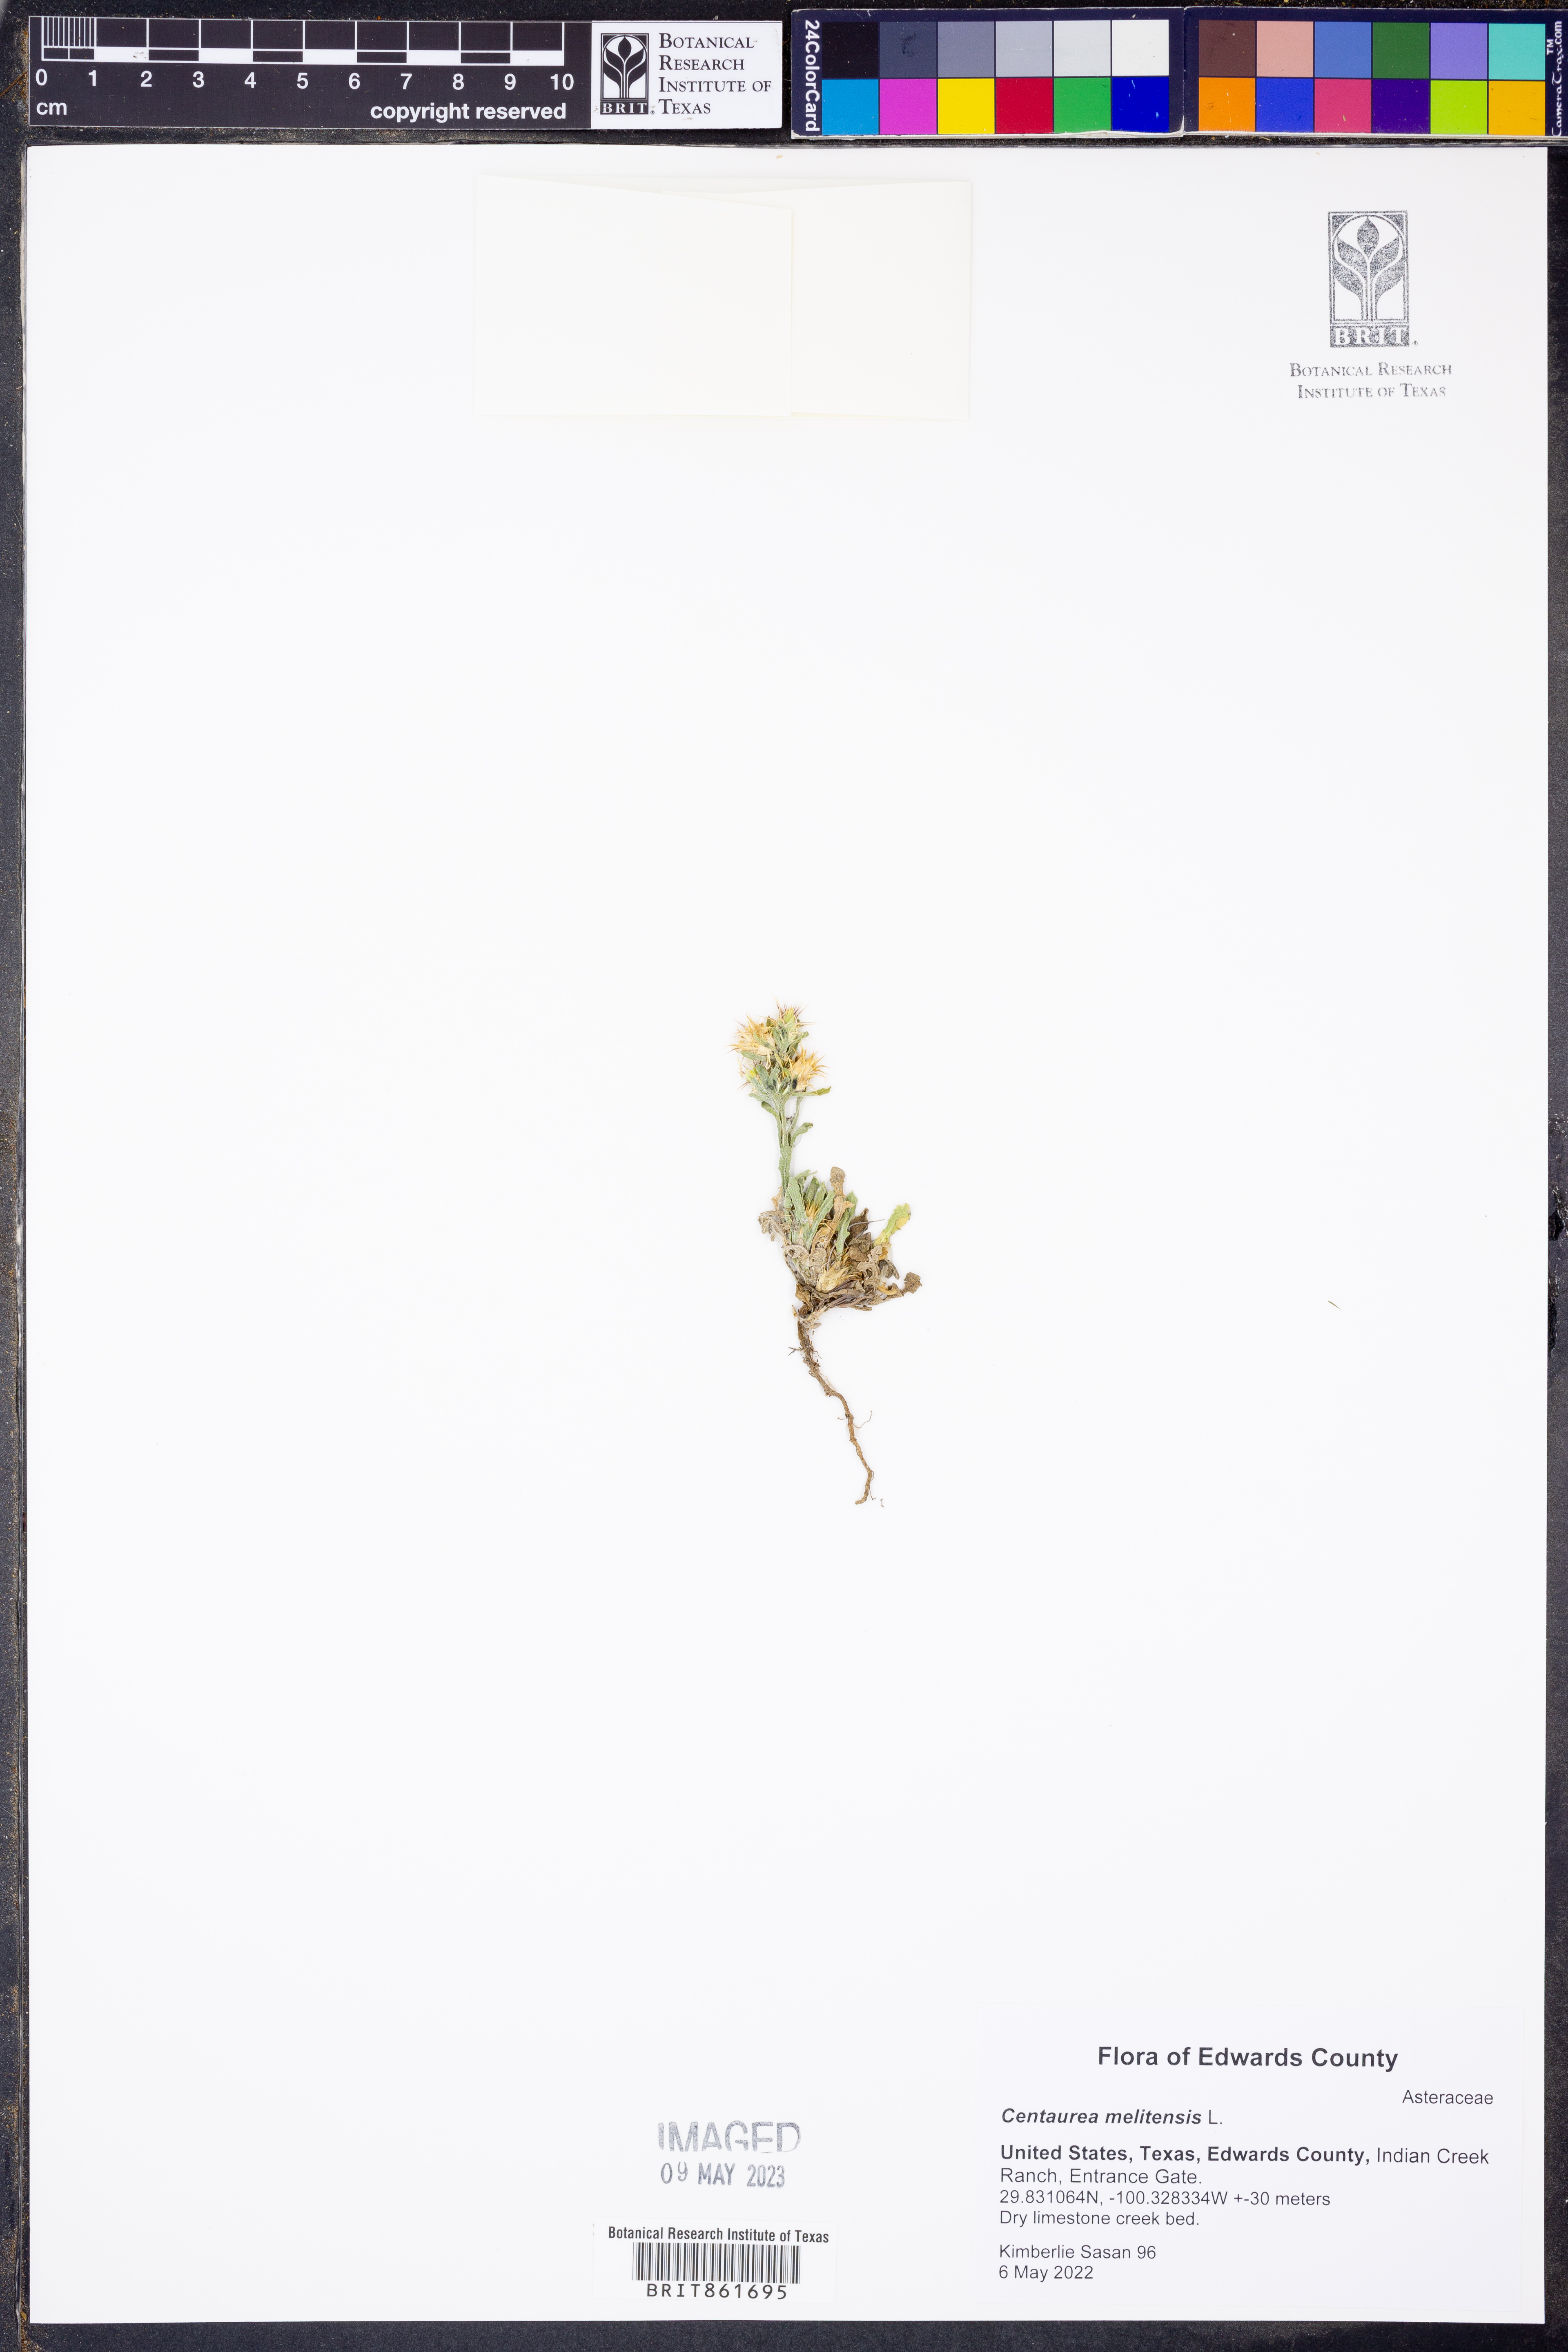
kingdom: Plantae
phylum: Tracheophyta
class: Magnoliopsida
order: Asterales
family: Asteraceae
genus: Centaurea
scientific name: Centaurea melitensis
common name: Maltese star-thistle
